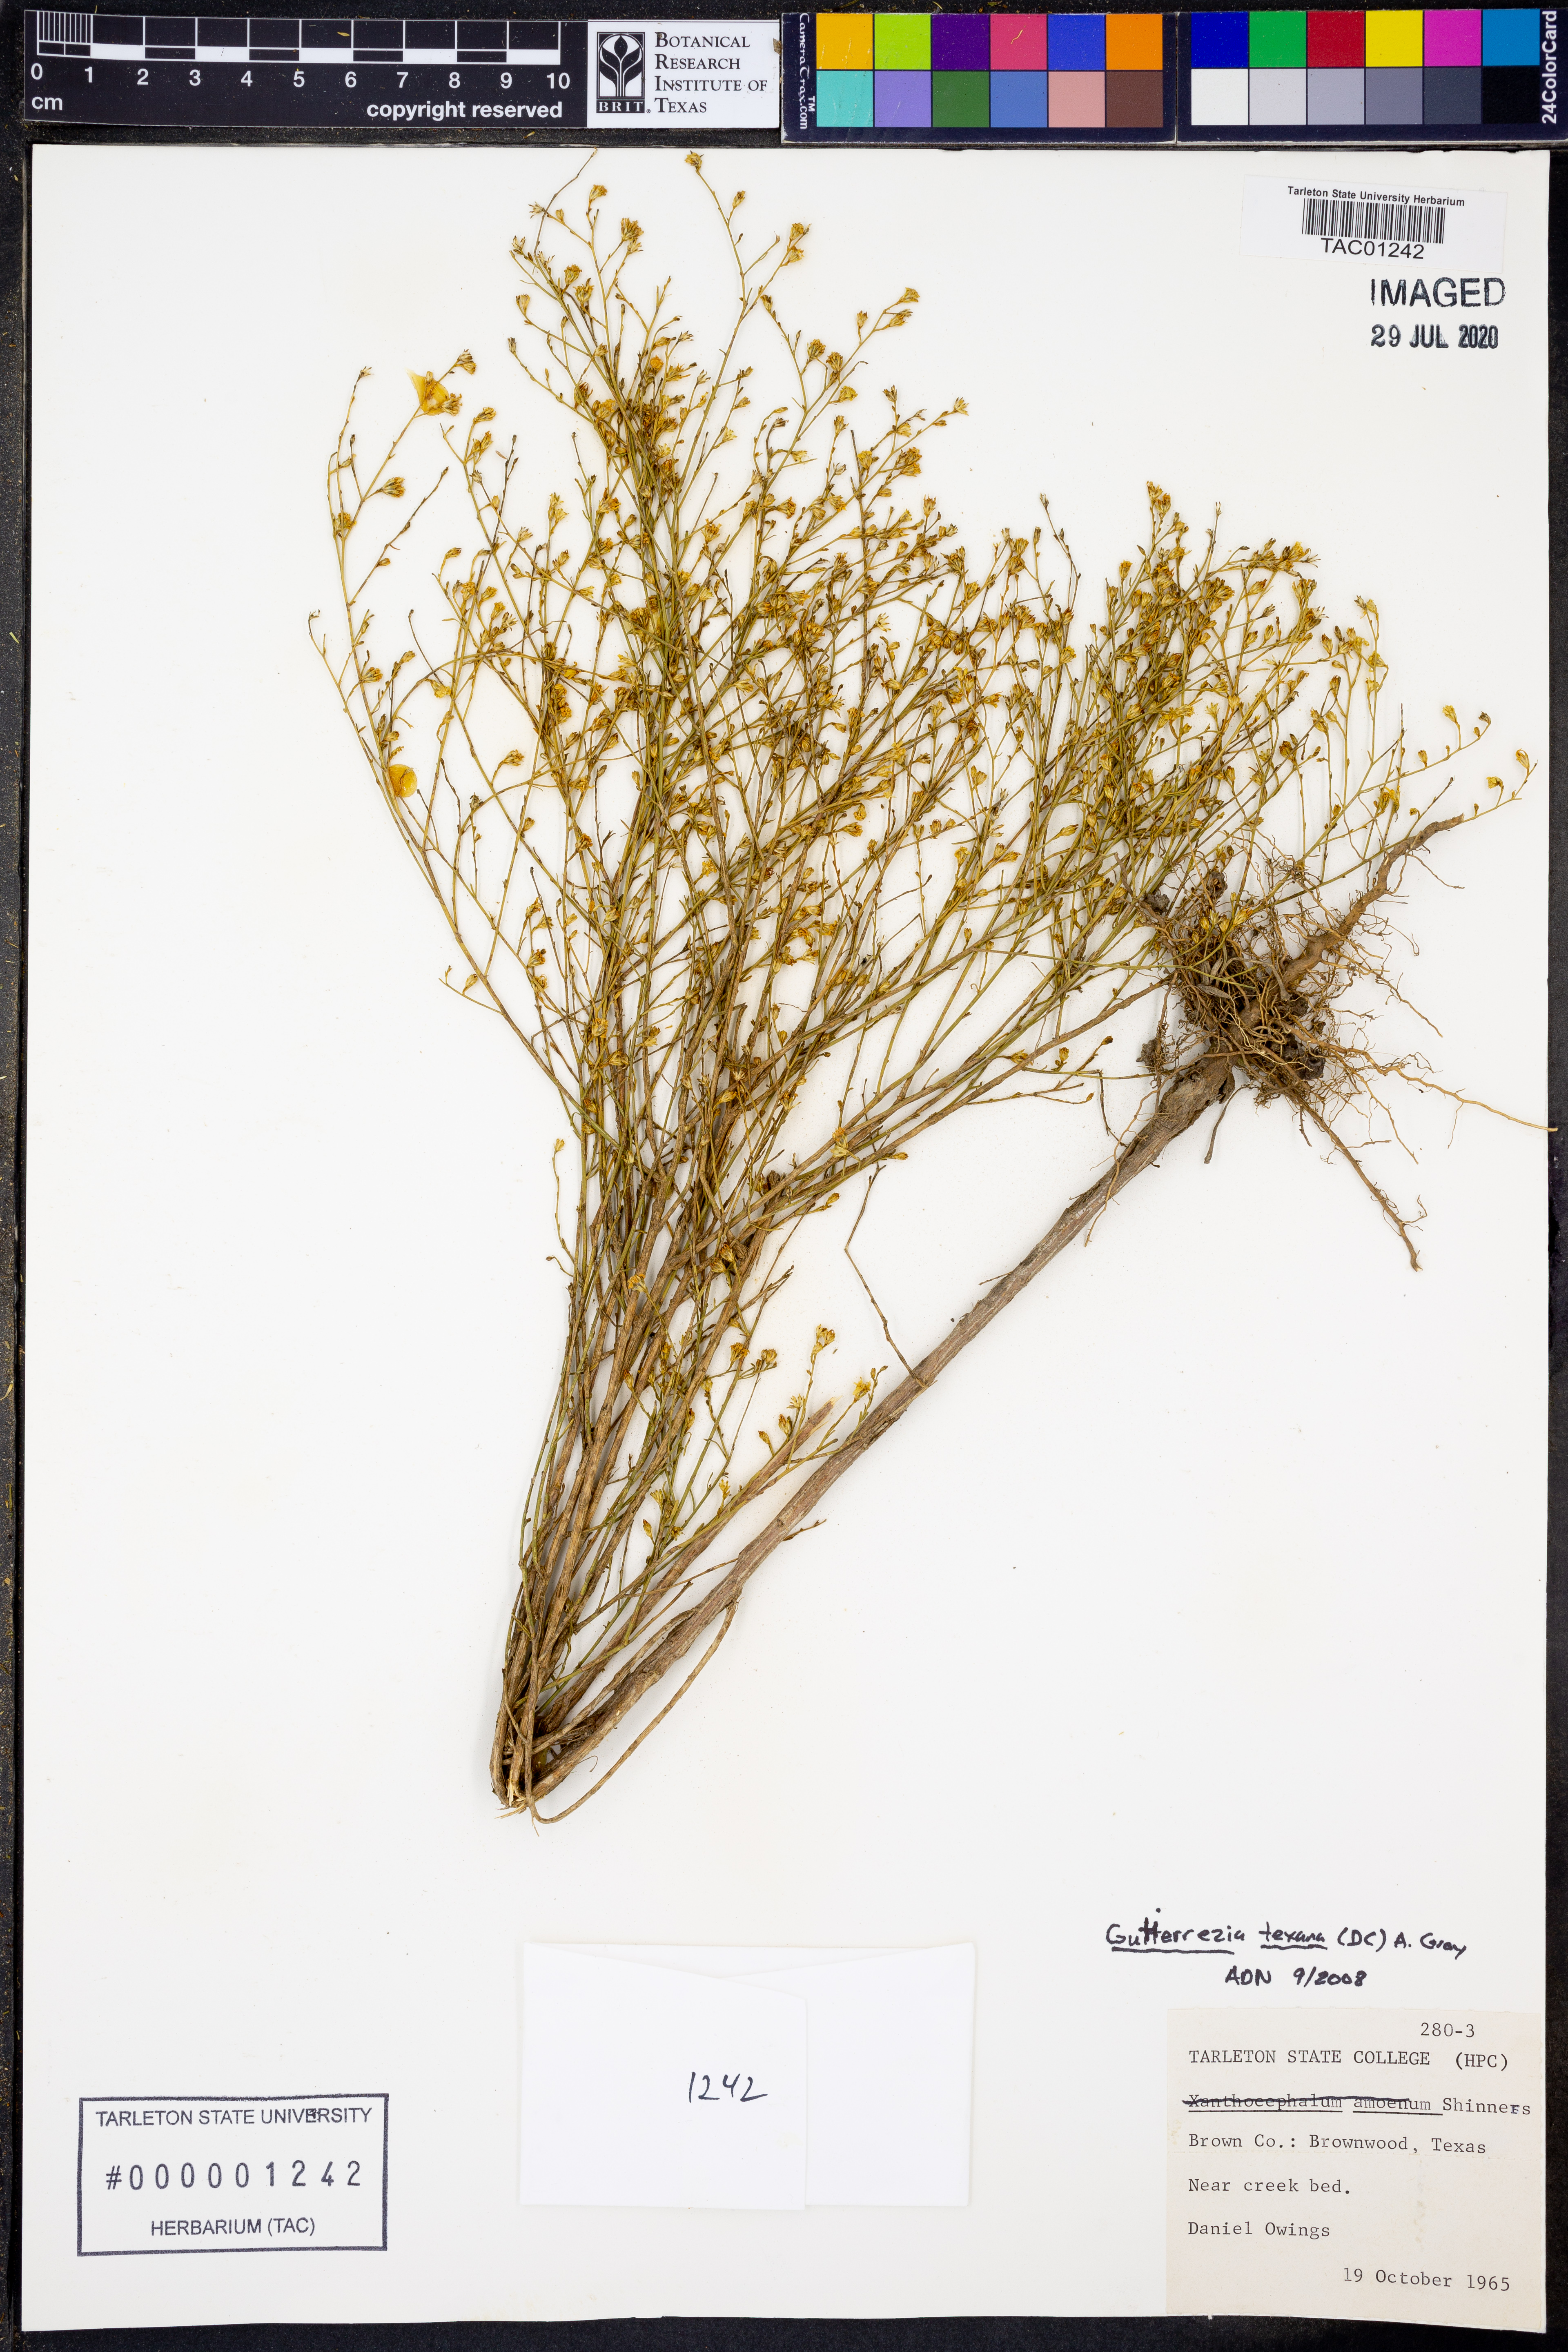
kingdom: Plantae
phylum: Tracheophyta
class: Magnoliopsida
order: Asterales
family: Asteraceae
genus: Gutierrezia
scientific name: Gutierrezia texana
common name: Texas snakeweed
